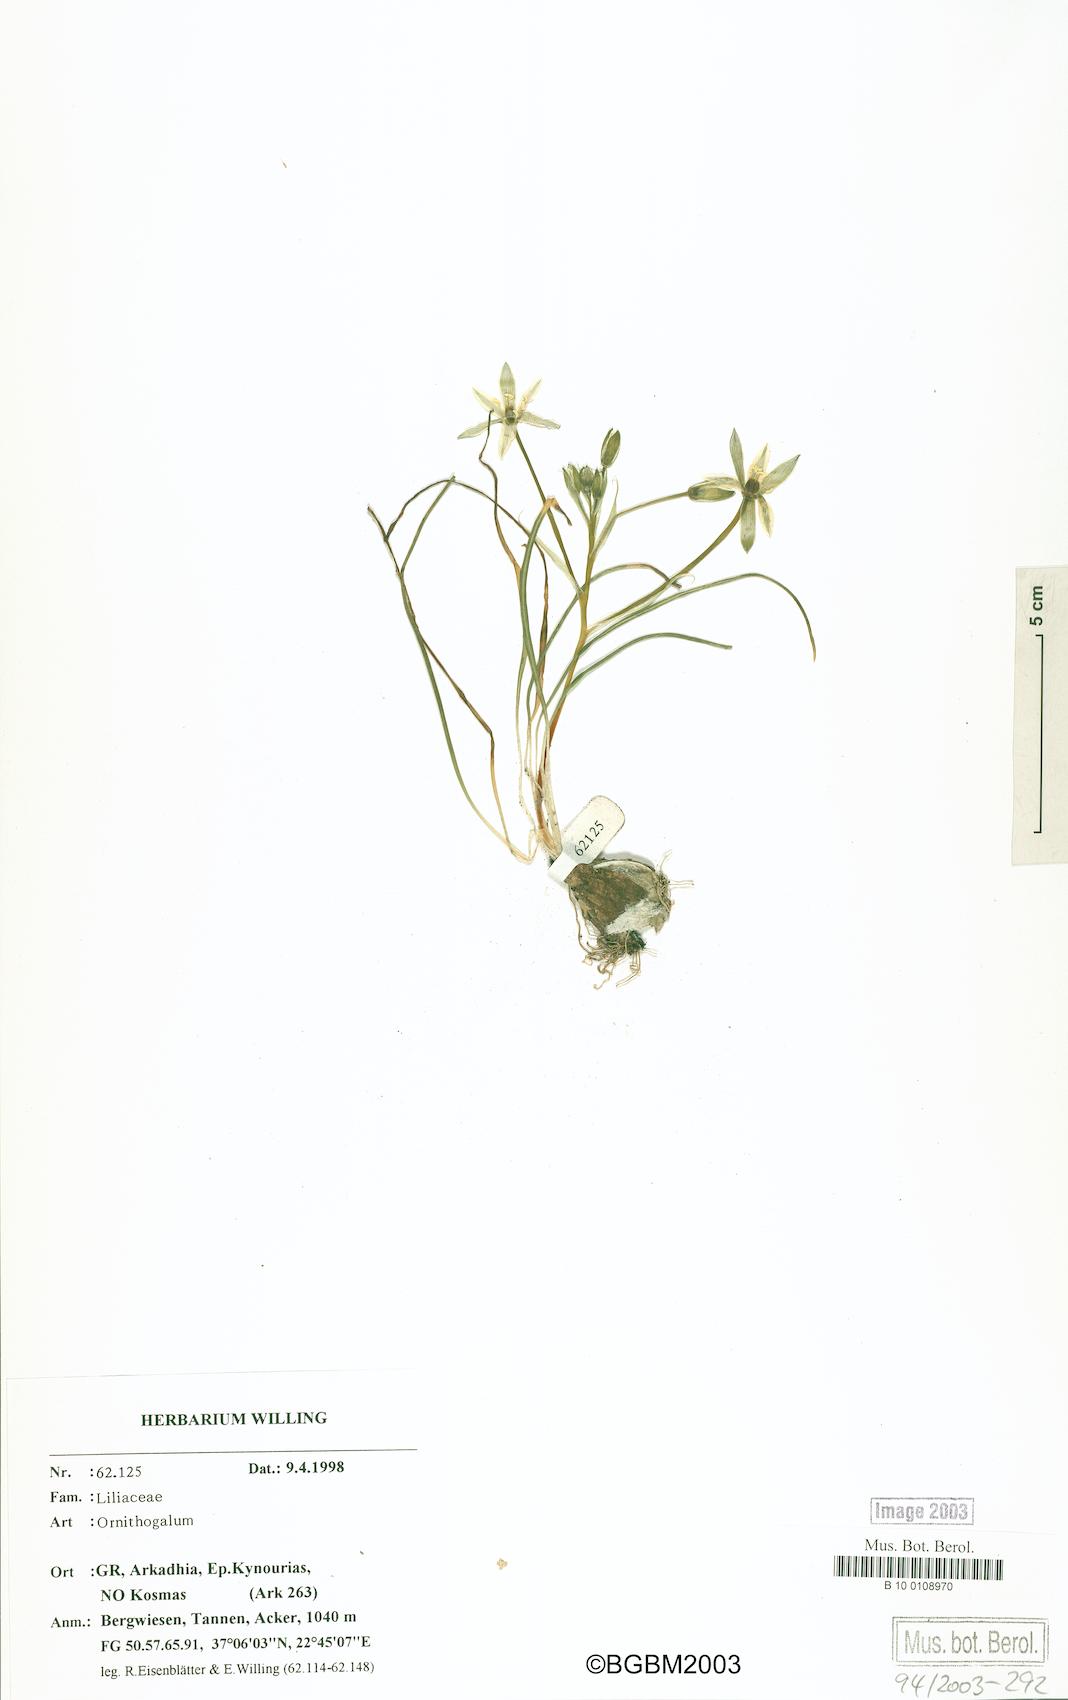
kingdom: Plantae
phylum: Tracheophyta
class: Liliopsida
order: Asparagales
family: Asparagaceae
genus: Ornithogalum
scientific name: Ornithogalum
